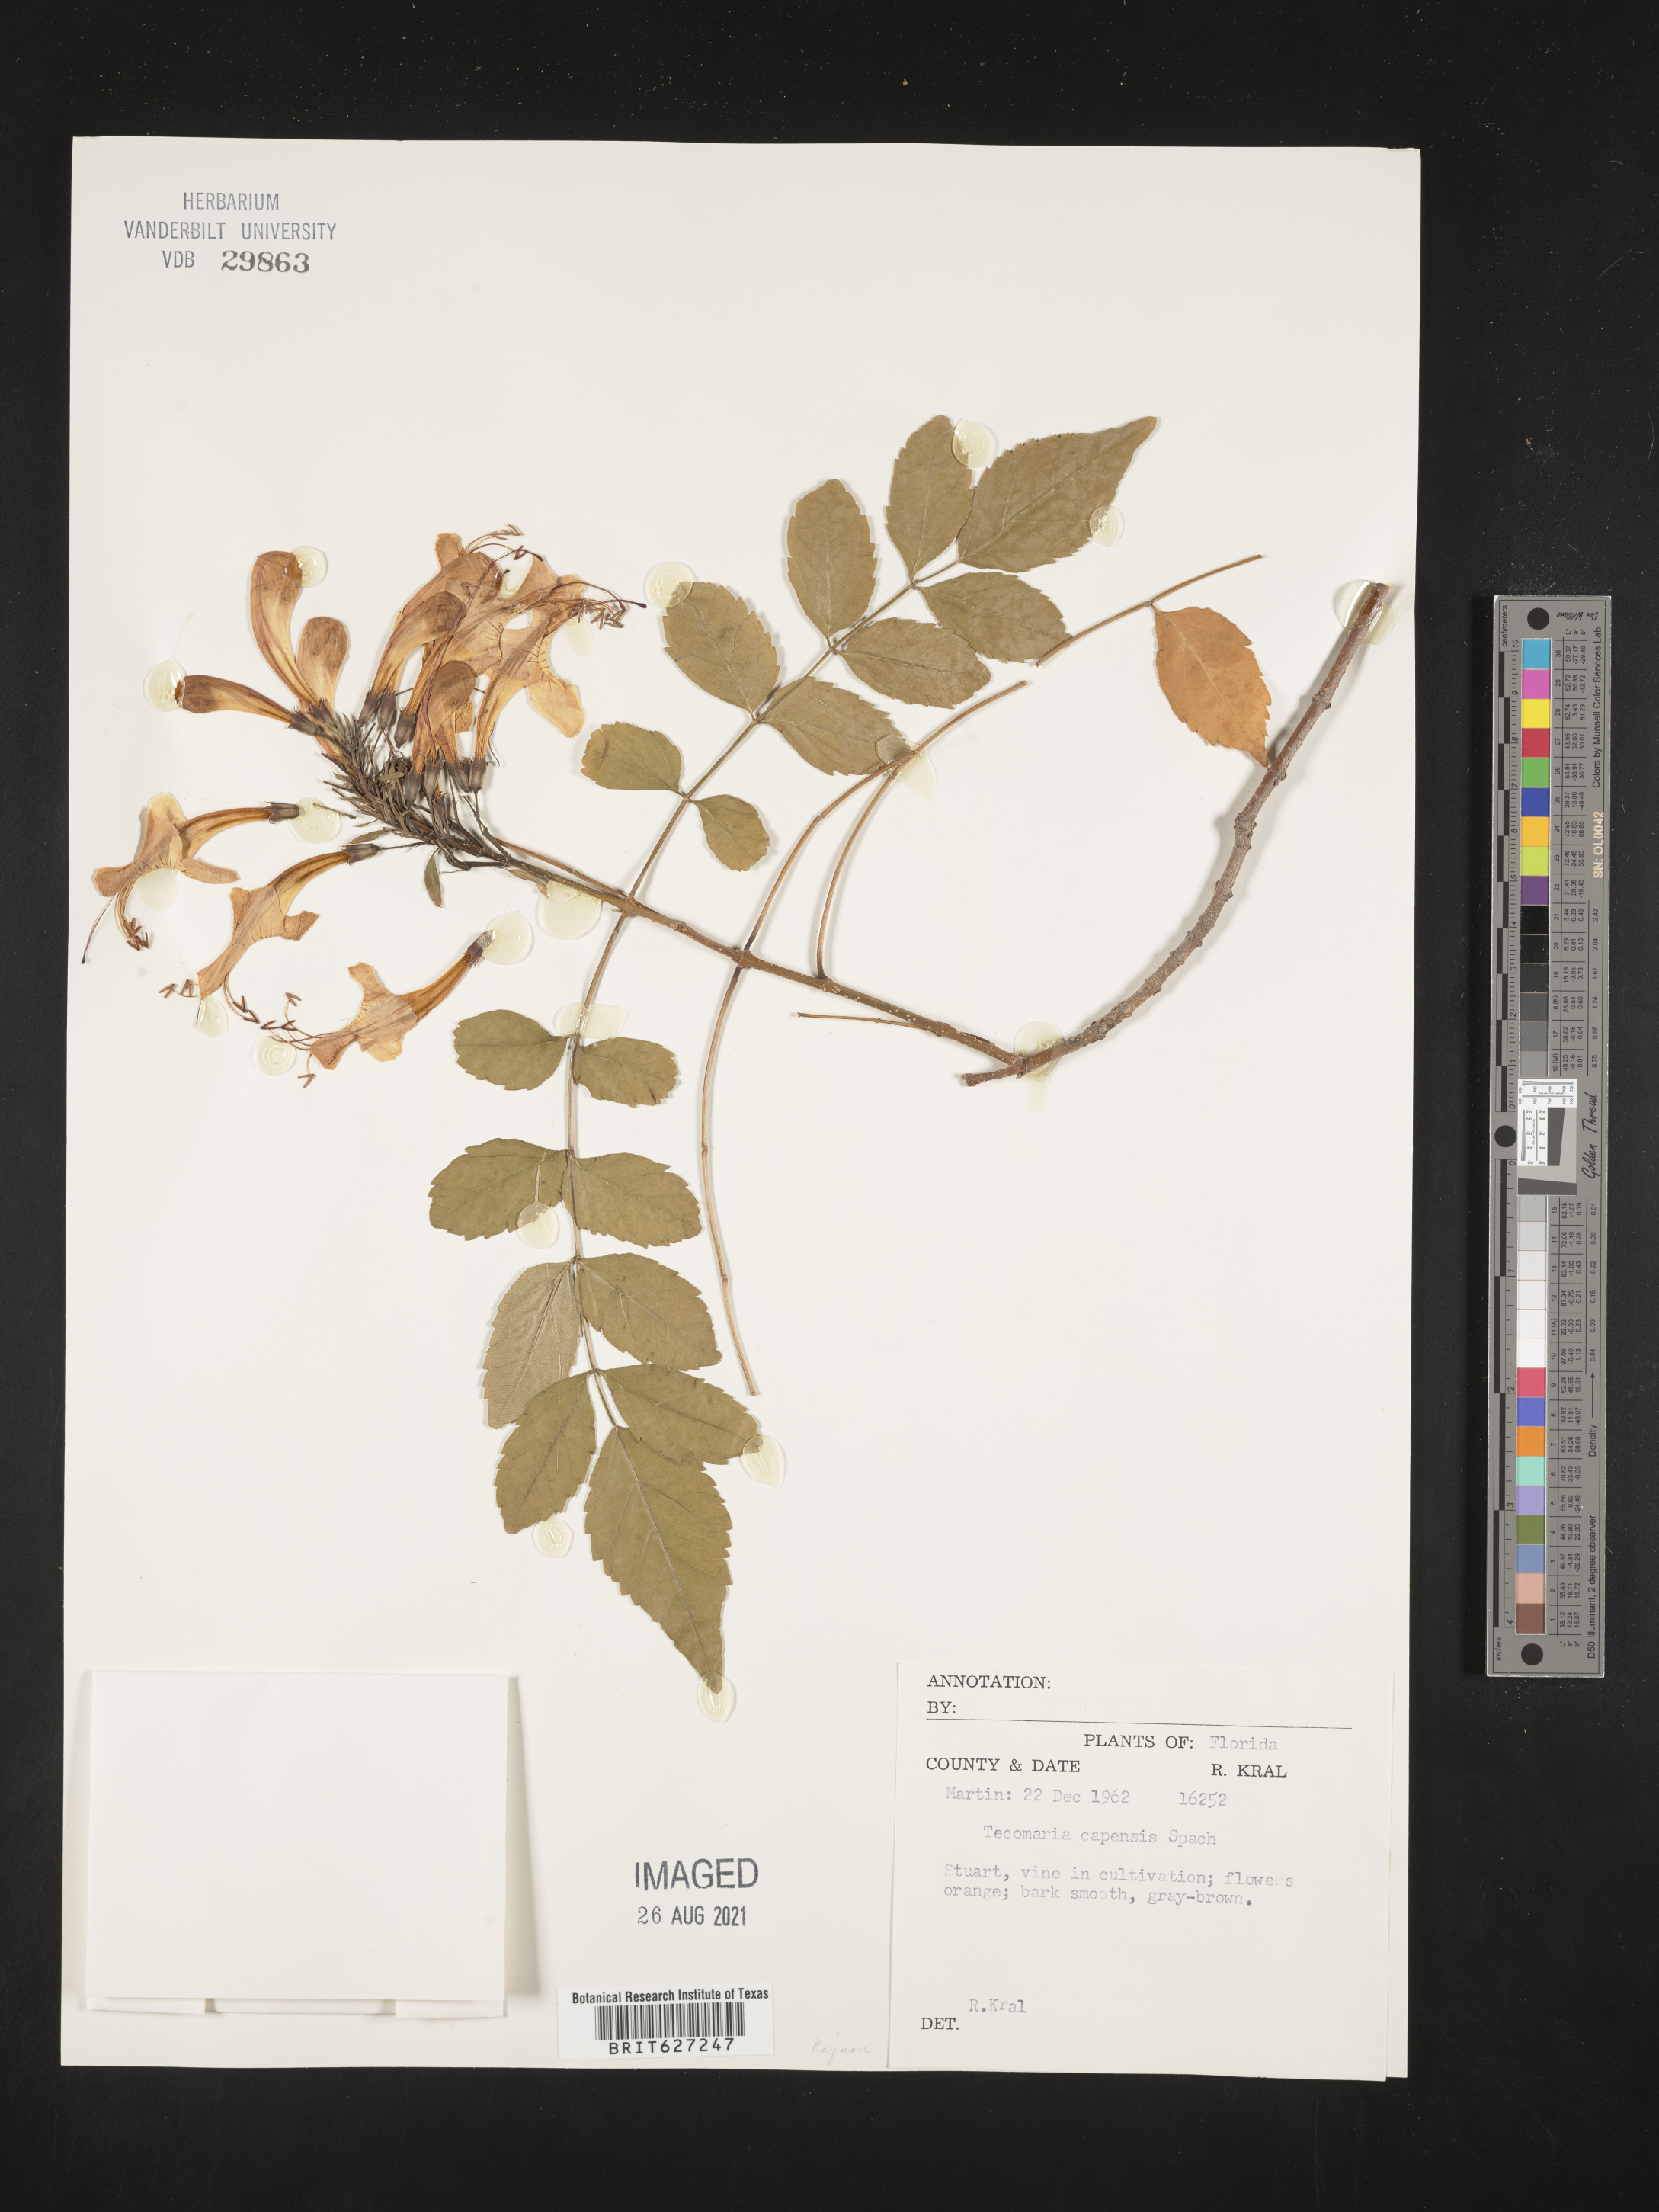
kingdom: Plantae
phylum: Tracheophyta
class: Magnoliopsida
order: Lamiales
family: Bignoniaceae
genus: Tecomaria
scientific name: Tecomaria capensis
